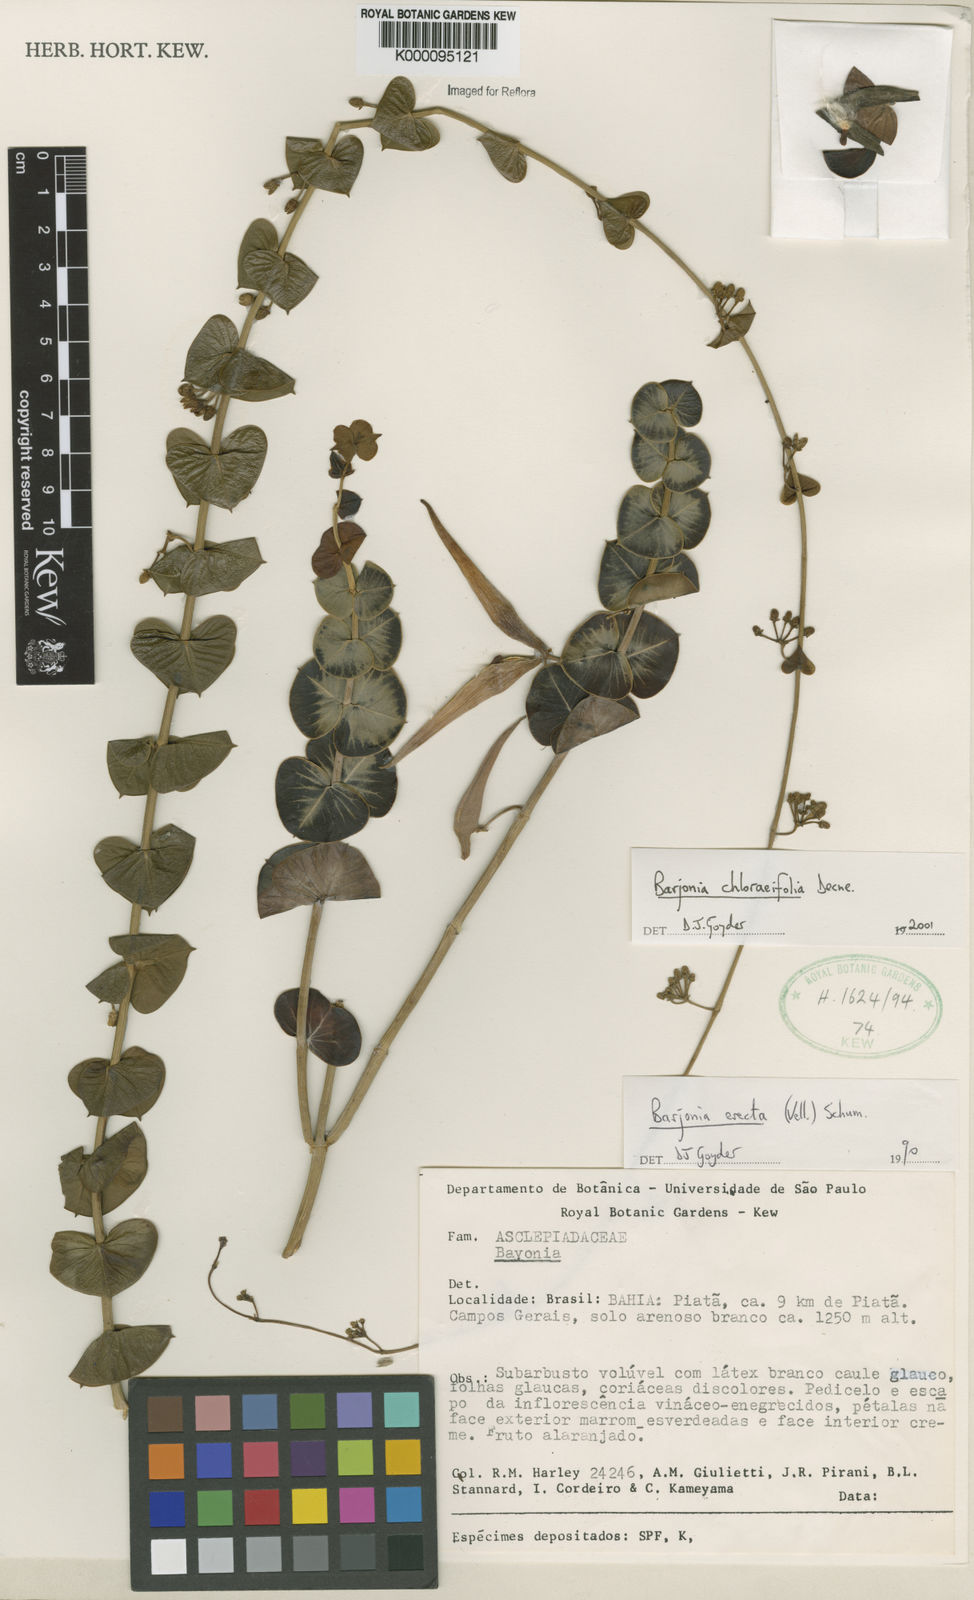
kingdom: Plantae
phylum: Tracheophyta
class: Magnoliopsida
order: Gentianales
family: Apocynaceae
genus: Barjonia
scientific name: Barjonia
